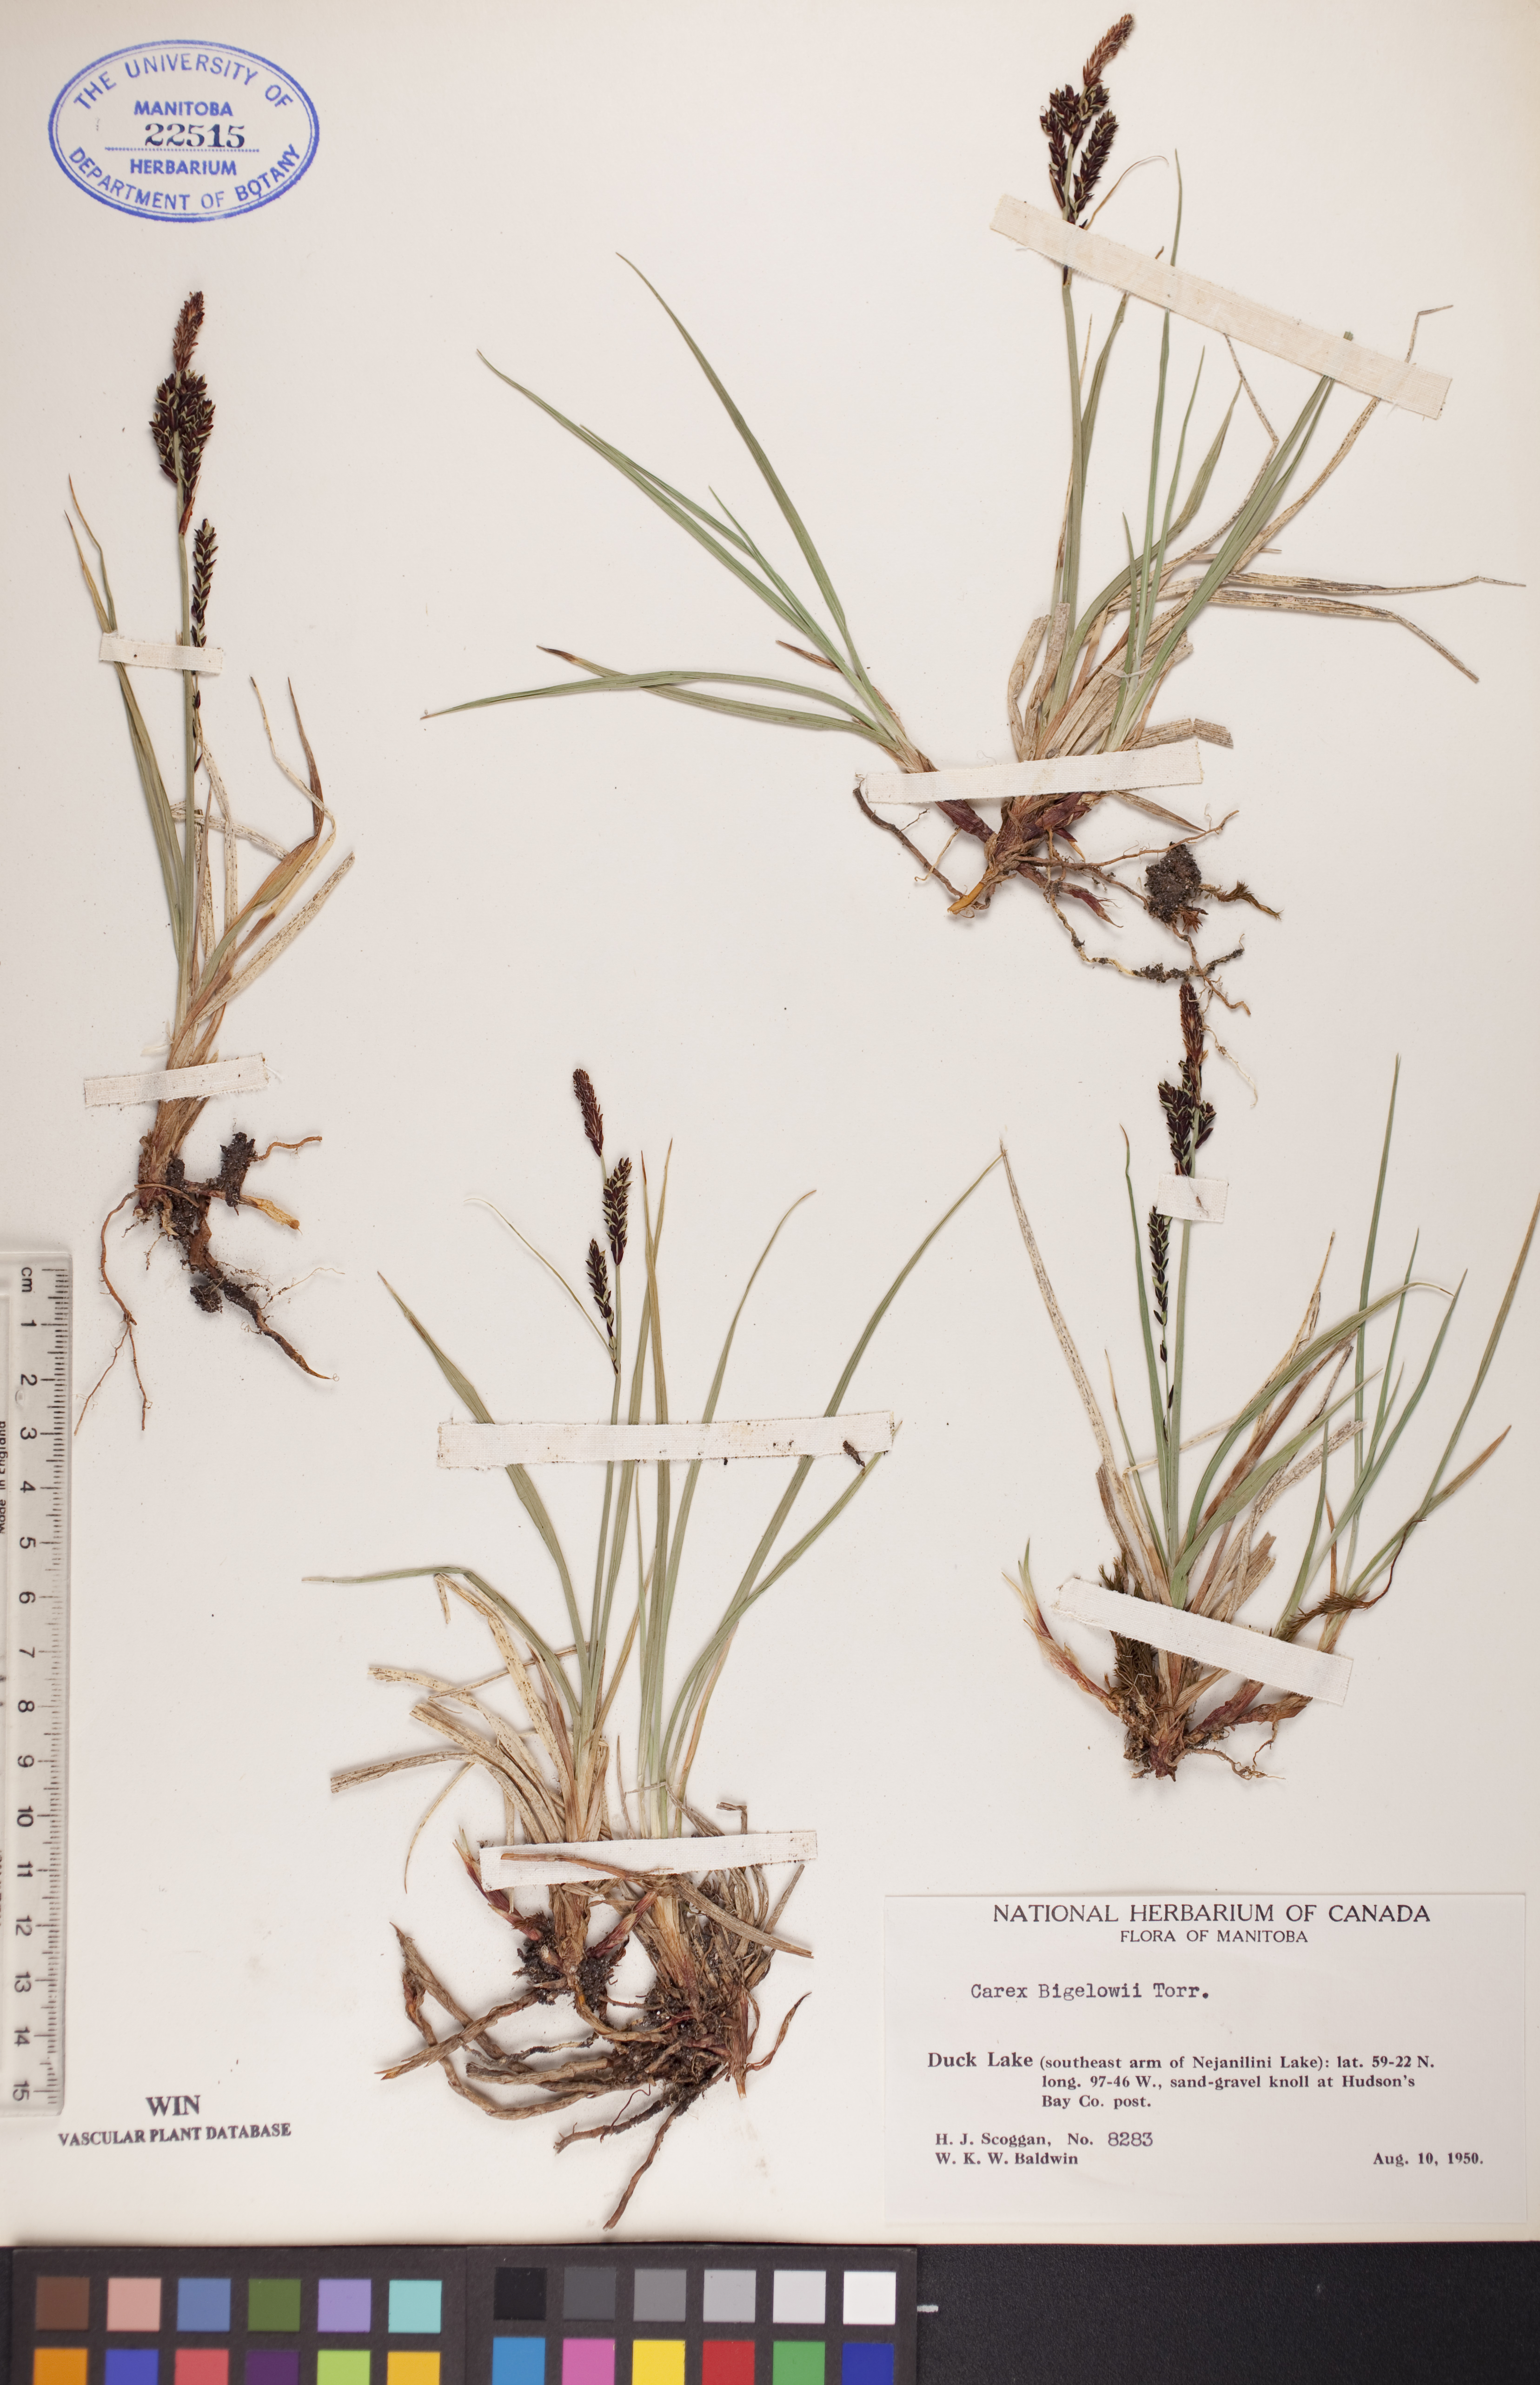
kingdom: Plantae
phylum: Tracheophyta
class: Liliopsida
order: Poales
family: Cyperaceae
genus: Carex
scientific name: Carex bigelowii
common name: Stiff sedge
